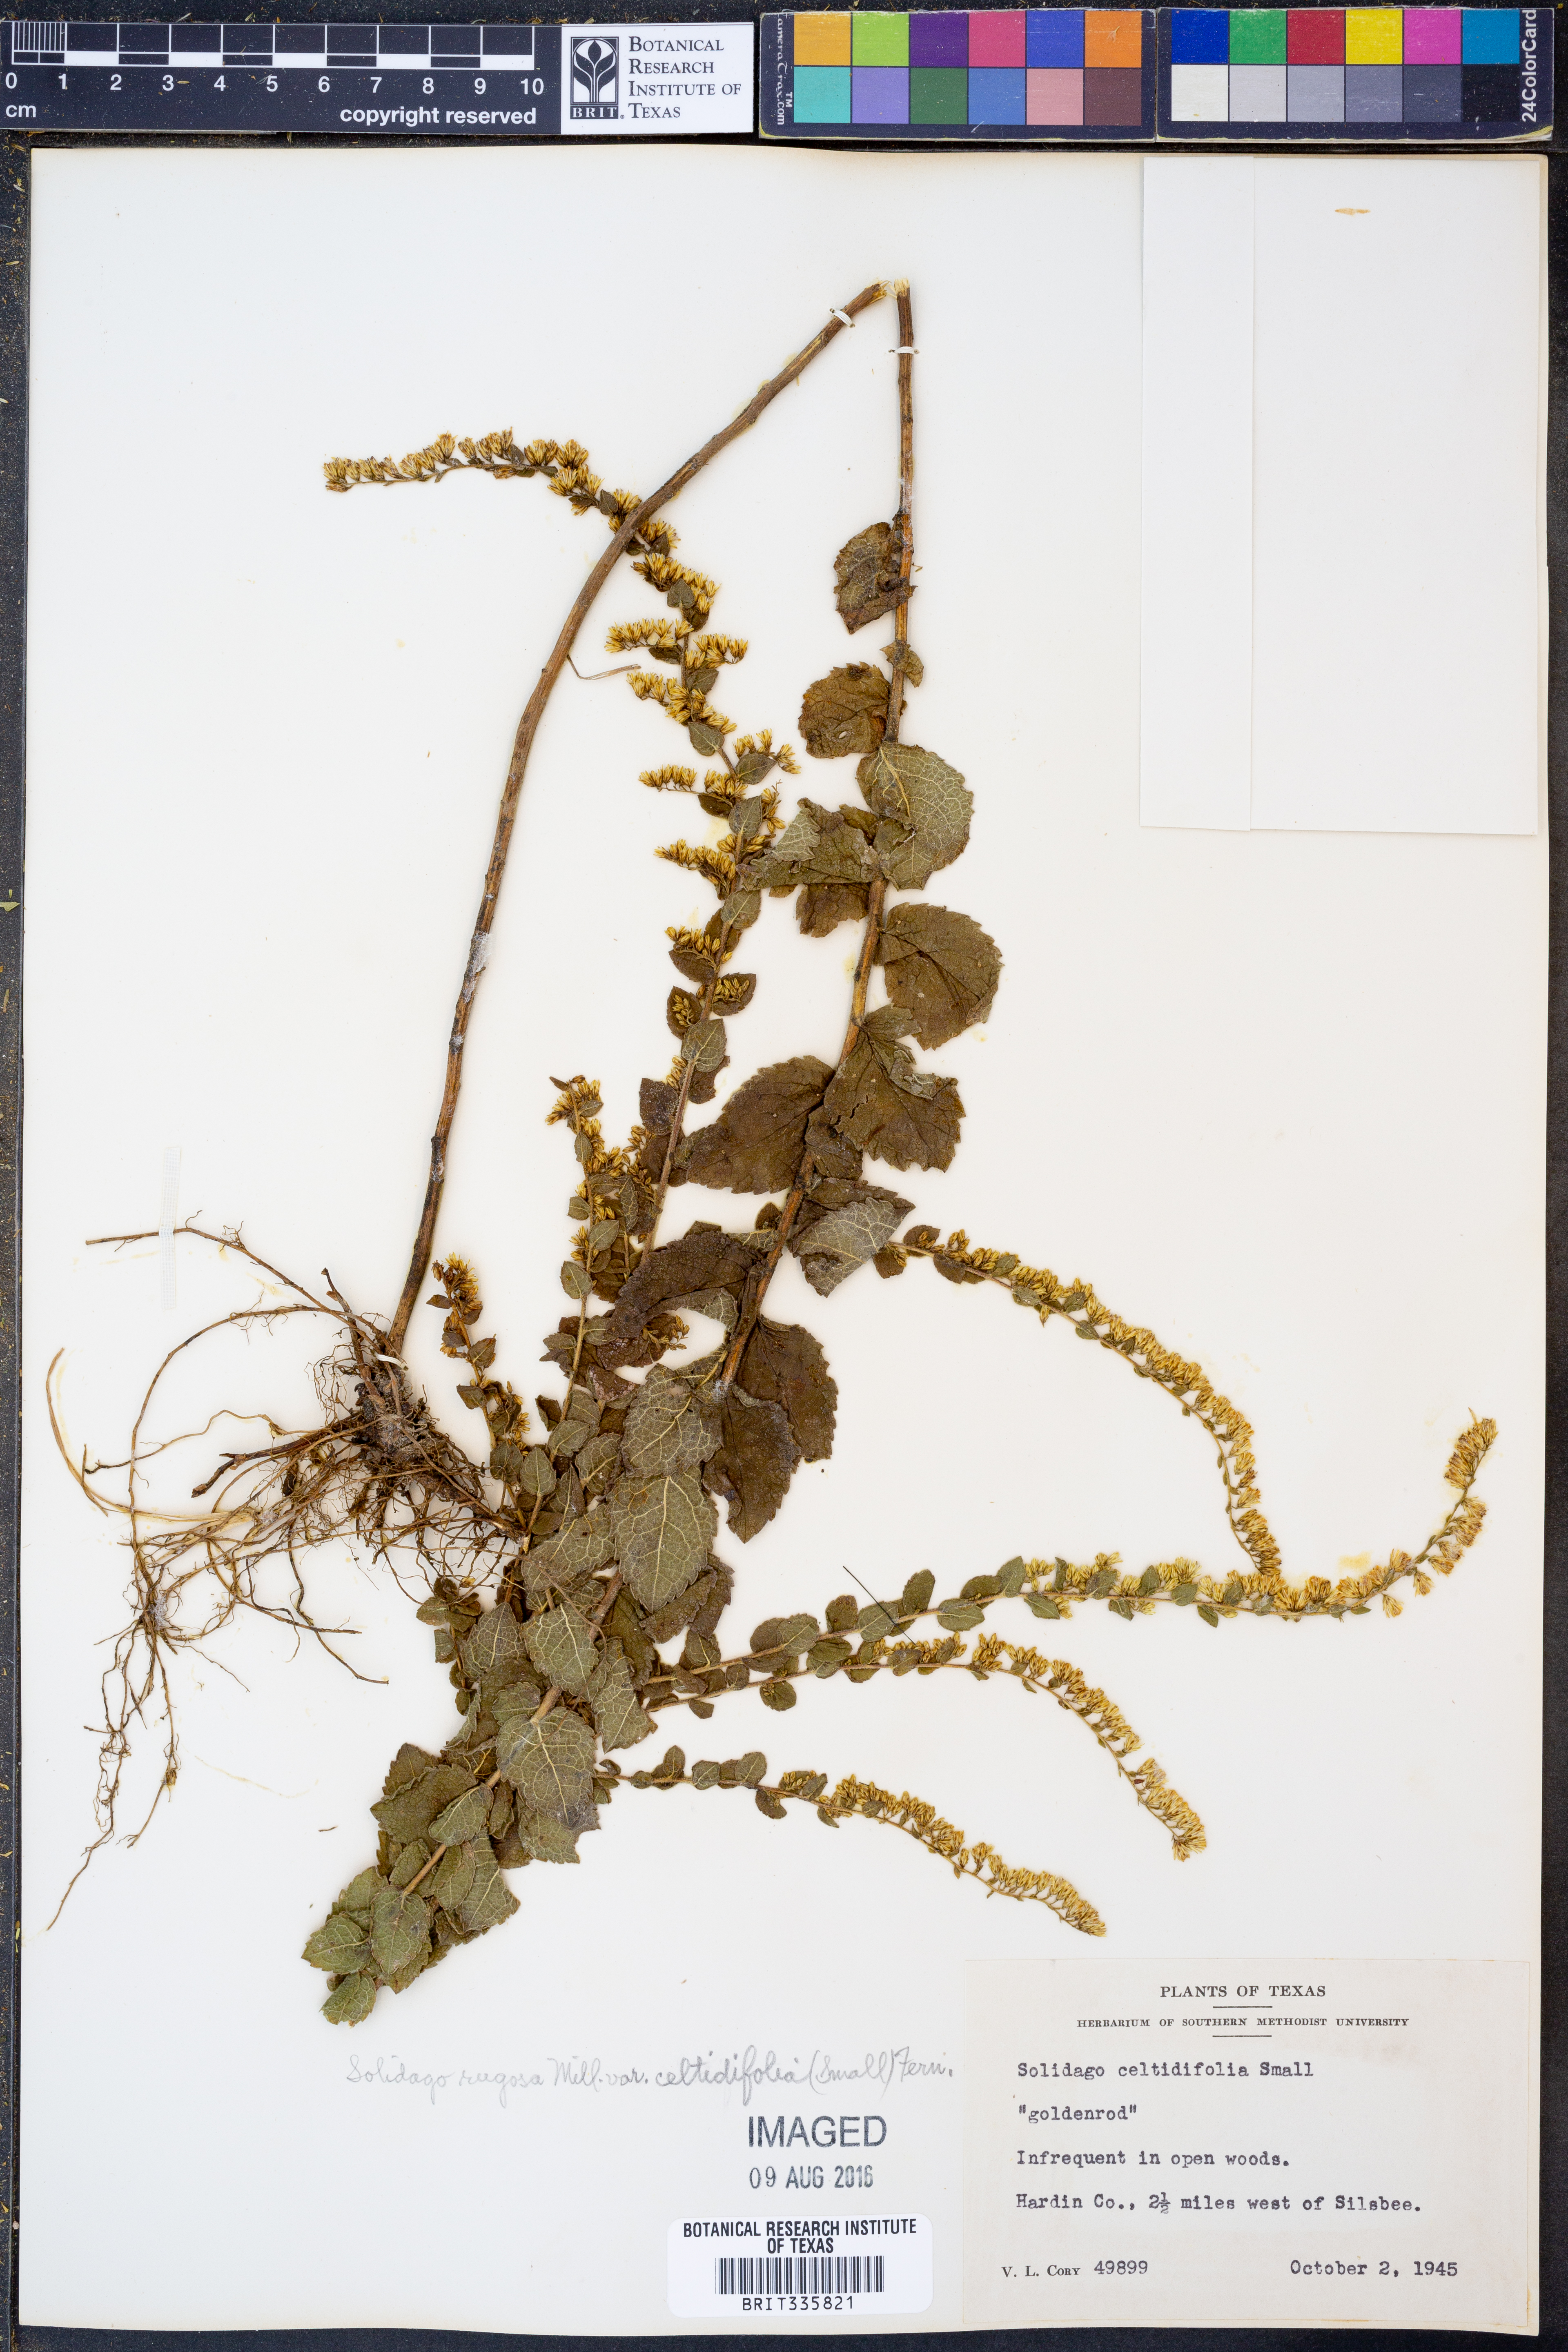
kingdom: Plantae
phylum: Tracheophyta
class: Magnoliopsida
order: Asterales
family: Asteraceae
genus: Solidago
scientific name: Solidago rugosa
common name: Rough-stemmed goldenrod
